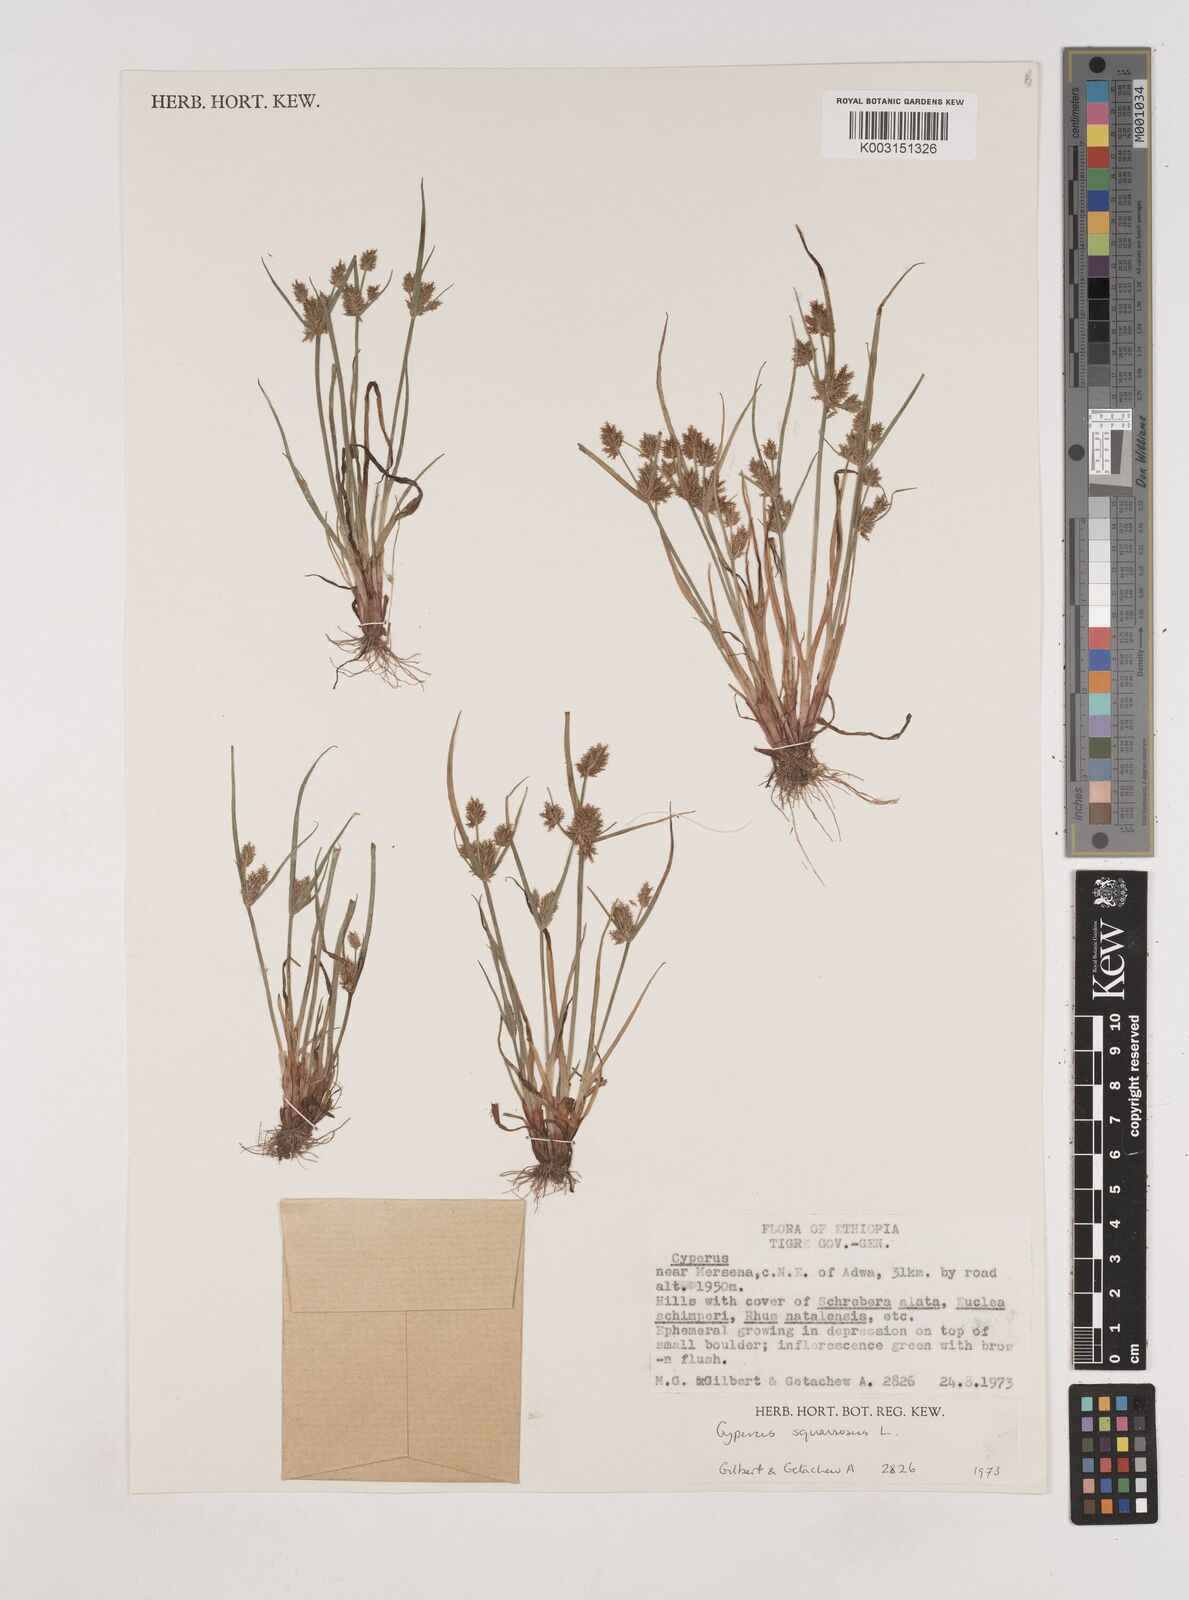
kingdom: Plantae
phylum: Tracheophyta
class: Liliopsida
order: Poales
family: Cyperaceae
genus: Cyperus
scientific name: Cyperus squarrosus
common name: Awned cyperus
